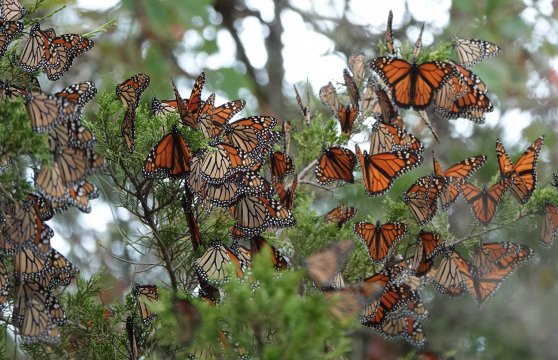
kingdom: Animalia
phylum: Arthropoda
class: Insecta
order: Lepidoptera
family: Nymphalidae
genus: Danaus
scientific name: Danaus plexippus
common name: Monarch
